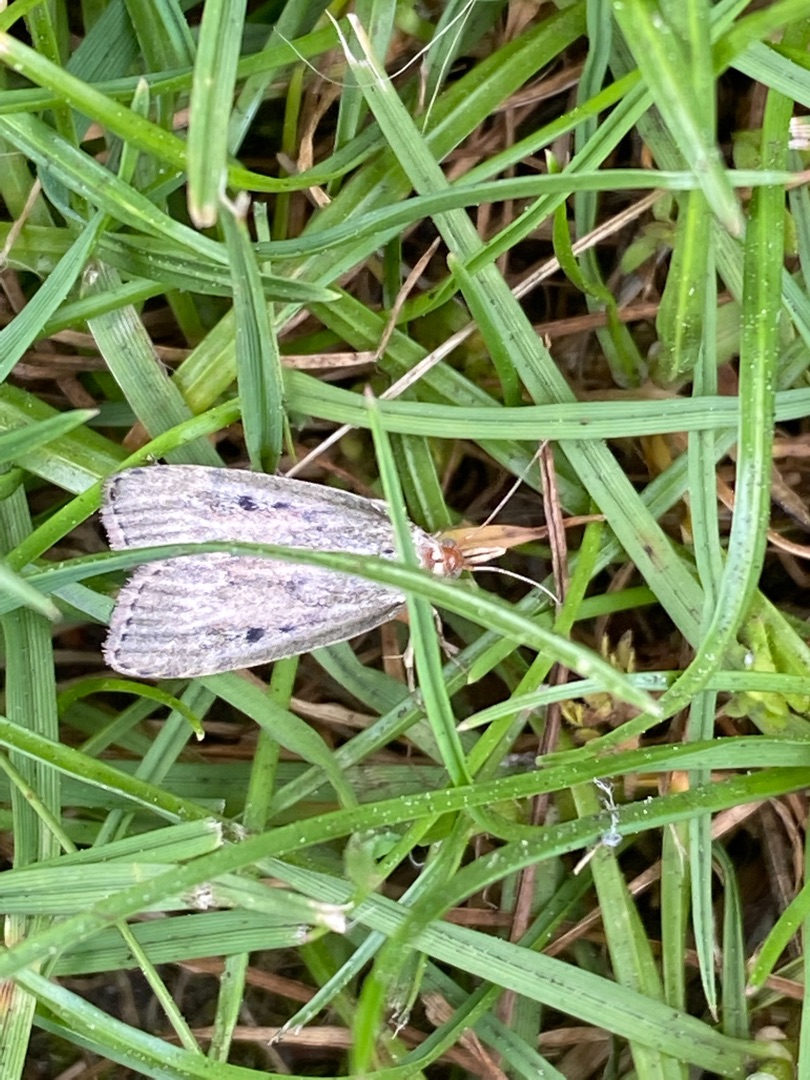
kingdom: Animalia
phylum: Arthropoda
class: Insecta
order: Lepidoptera
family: Pyralidae
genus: Aphomia
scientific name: Aphomia sociella
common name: Humlevoksmøl
